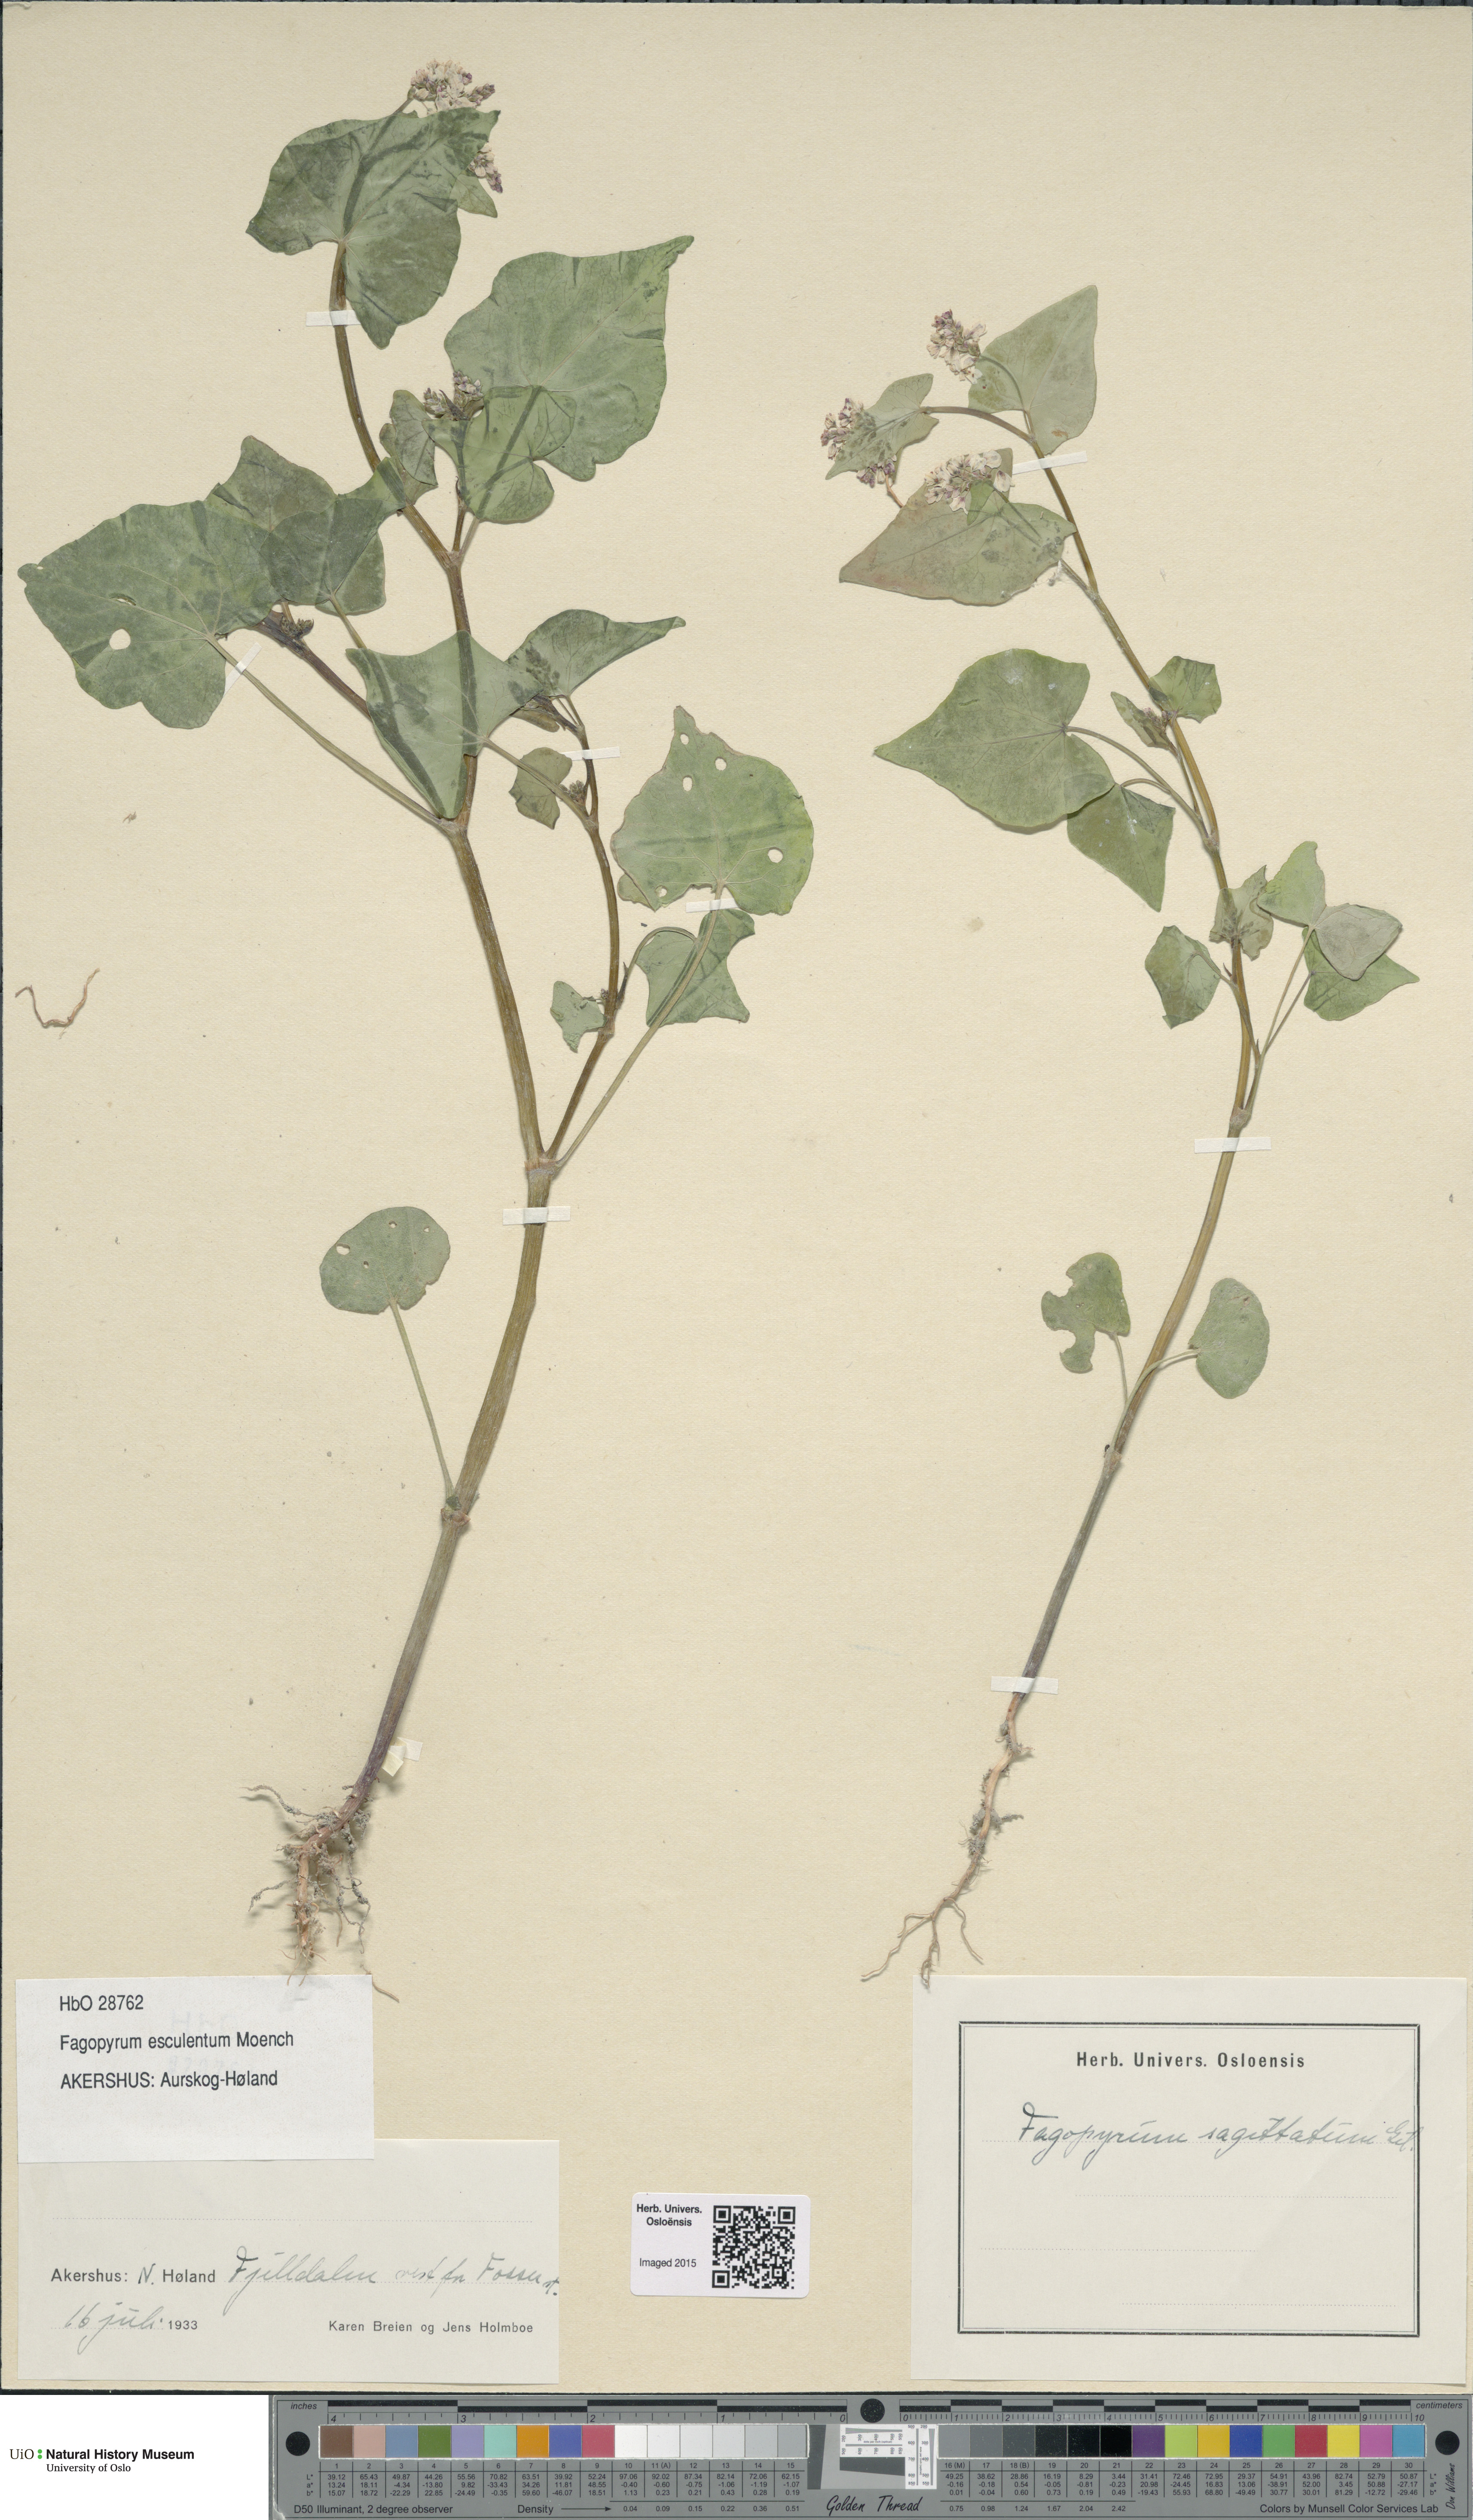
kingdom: Plantae
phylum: Tracheophyta
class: Magnoliopsida
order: Caryophyllales
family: Polygonaceae
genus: Fagopyrum
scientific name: Fagopyrum esculentum
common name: Buckwheat
